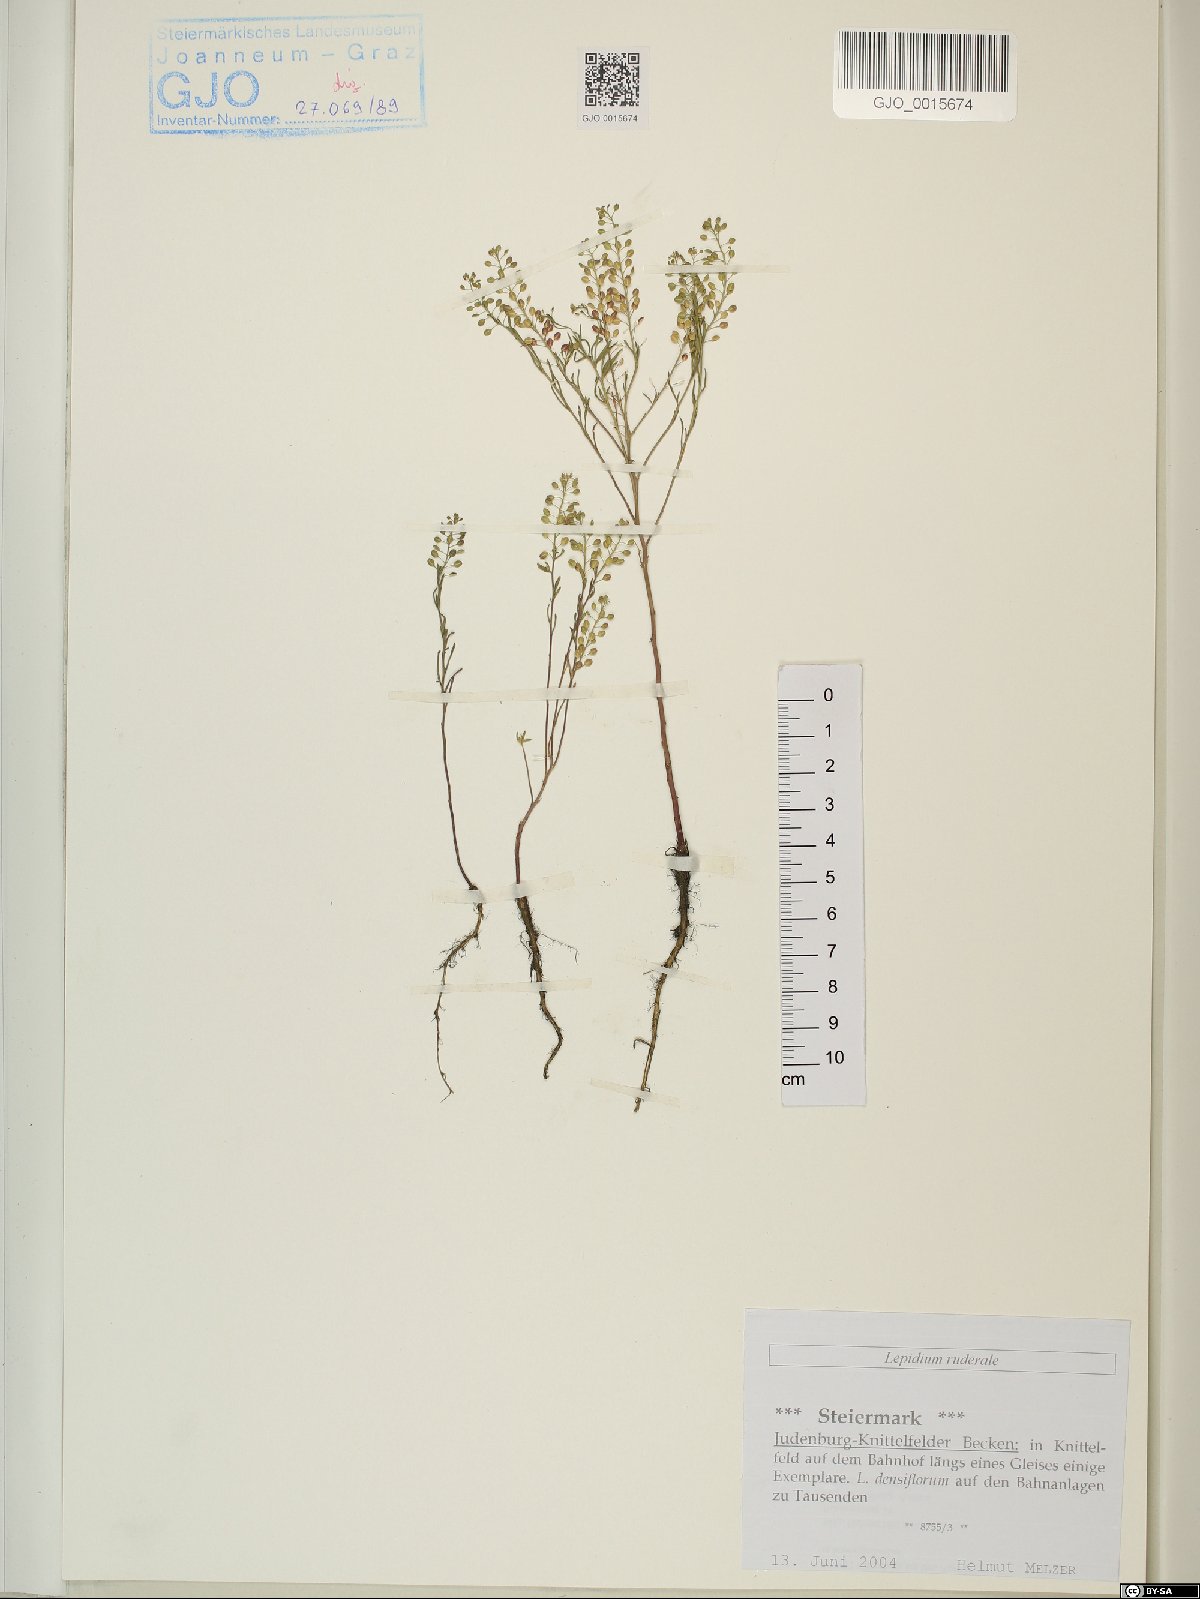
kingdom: Plantae
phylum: Tracheophyta
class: Magnoliopsida
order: Brassicales
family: Brassicaceae
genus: Lepidium
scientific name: Lepidium ruderale
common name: Narrow-leaved pepperwort
